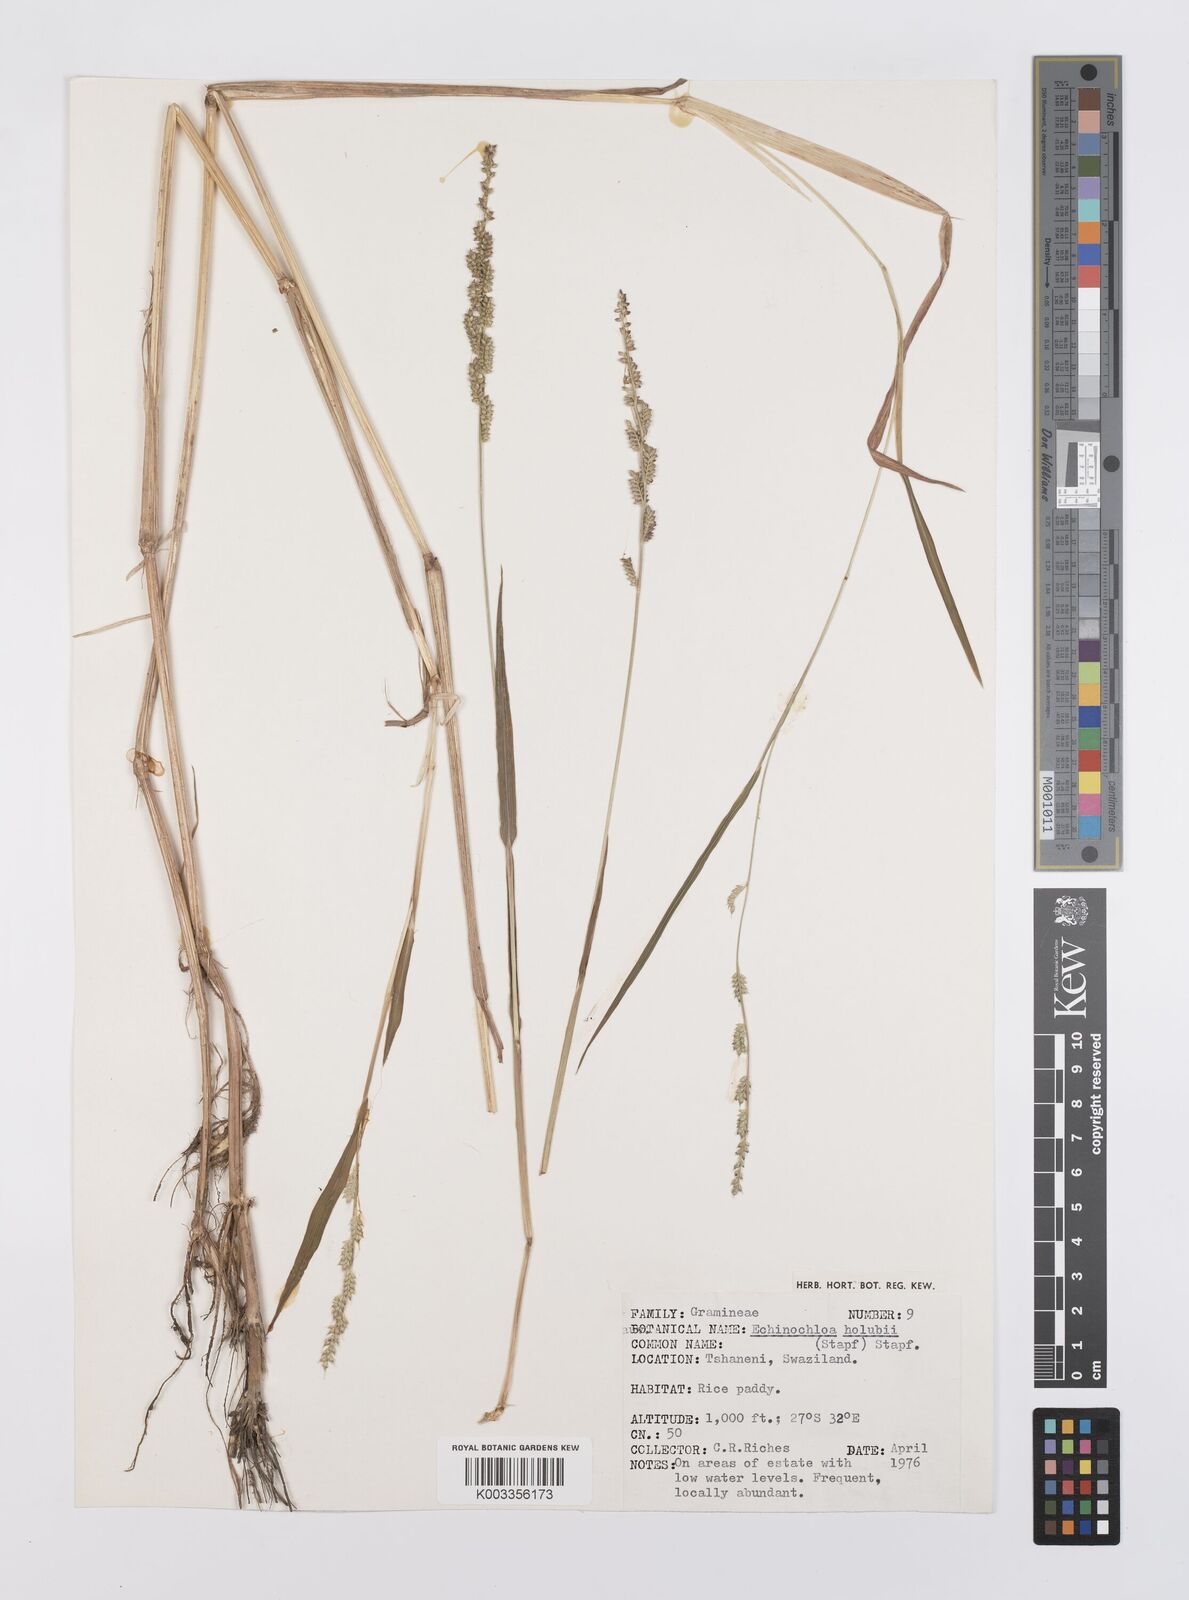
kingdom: Plantae
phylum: Tracheophyta
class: Liliopsida
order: Poales
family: Poaceae
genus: Echinochloa
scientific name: Echinochloa ugandensis
